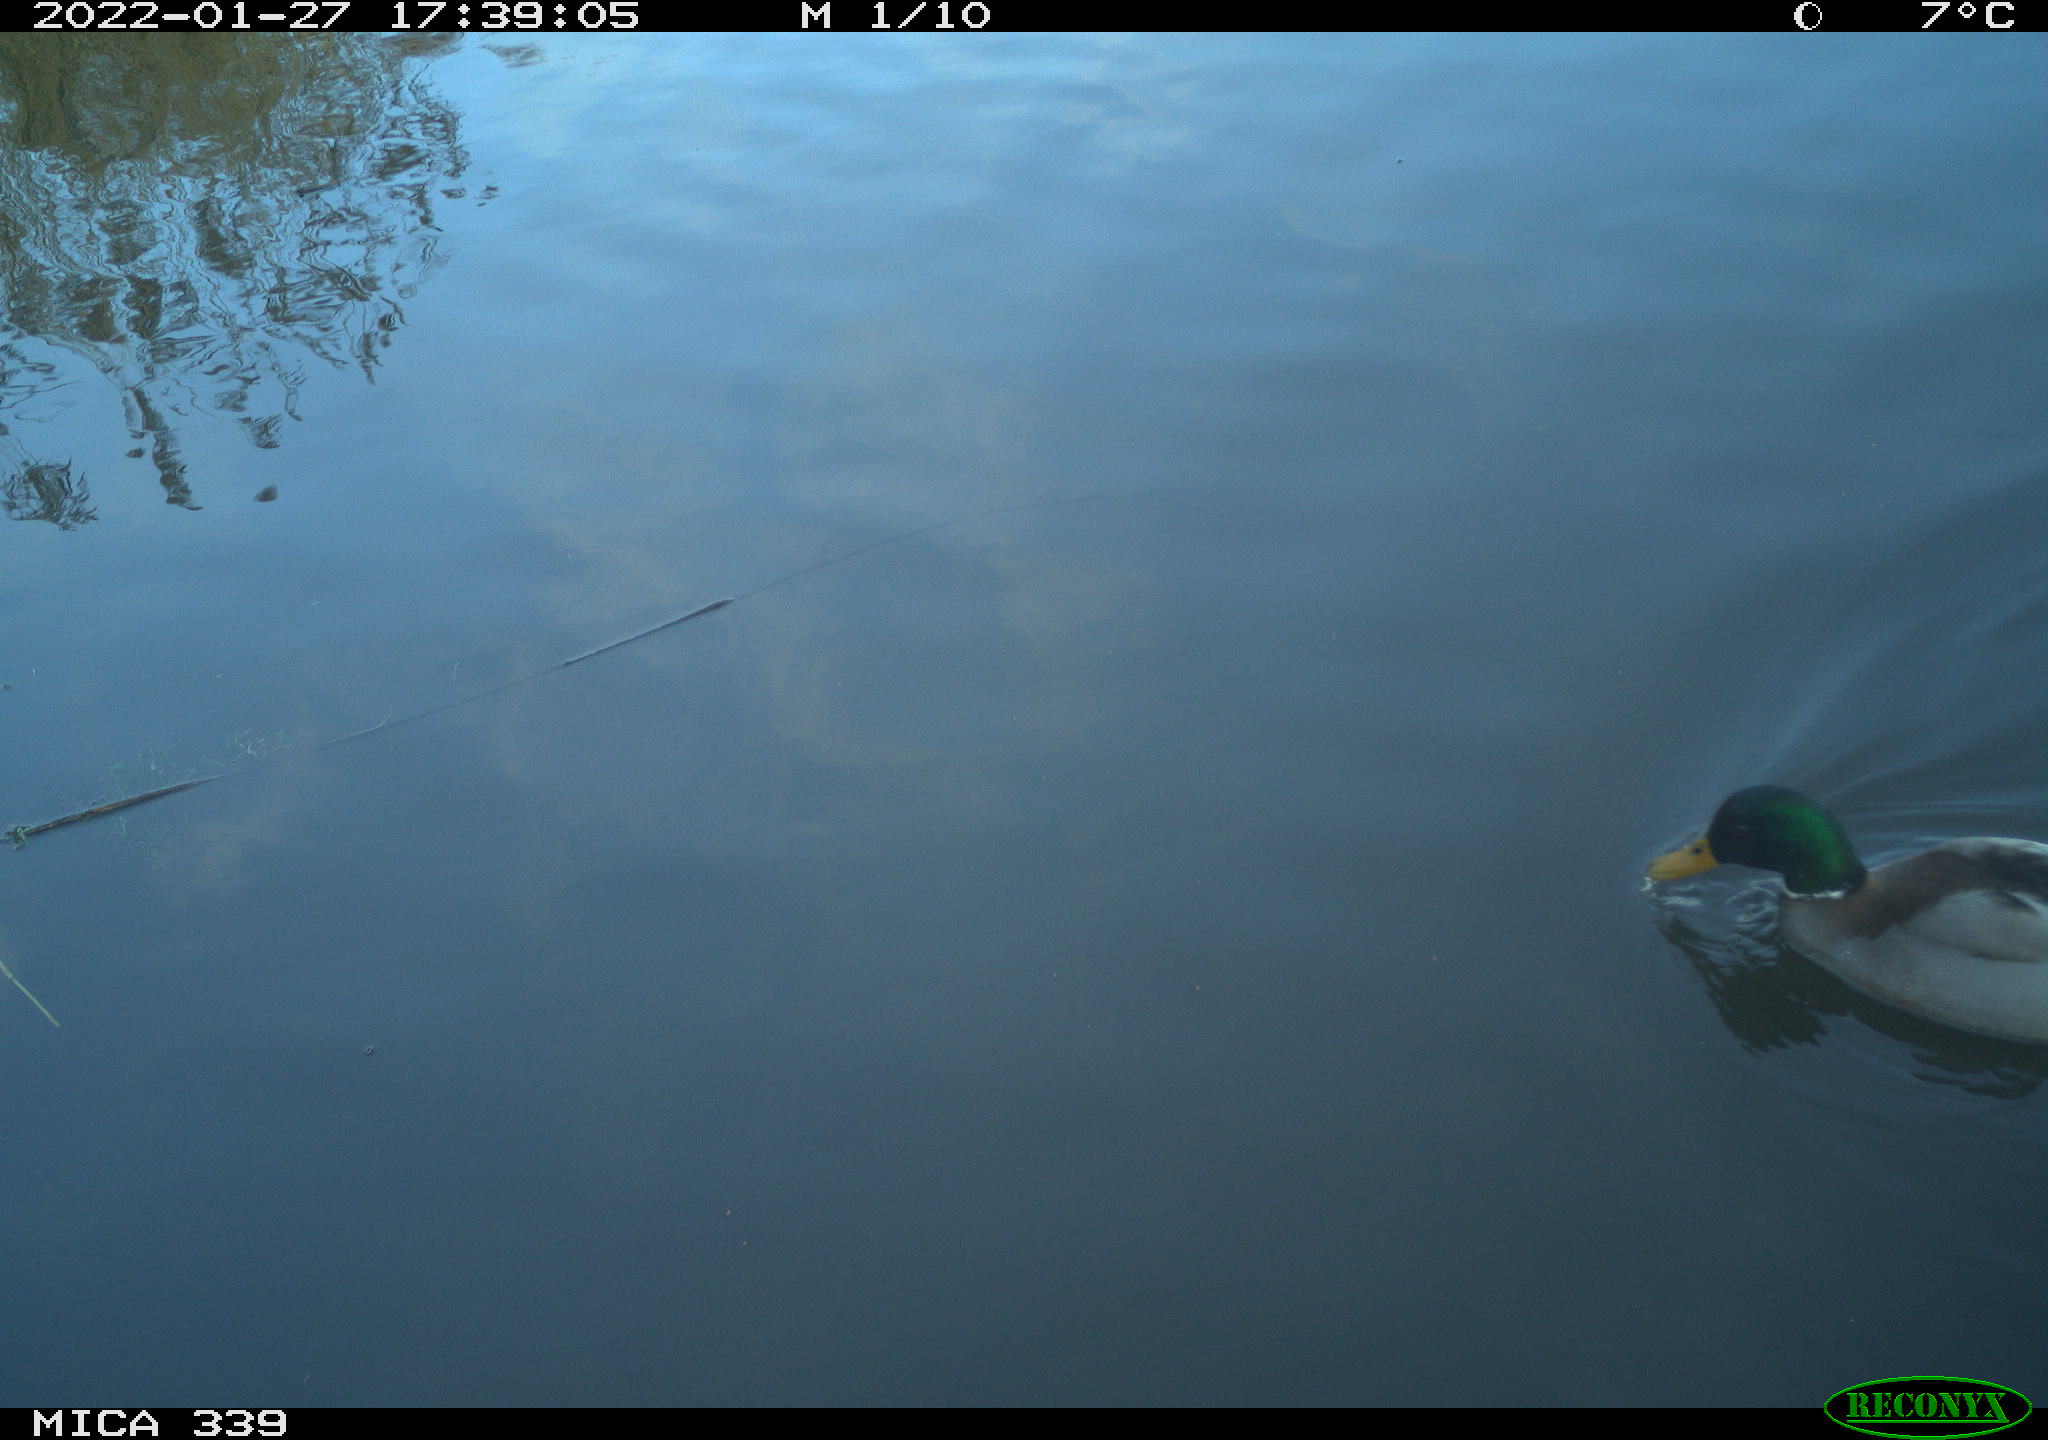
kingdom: Animalia
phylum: Chordata
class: Aves
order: Anseriformes
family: Anatidae
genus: Anas
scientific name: Anas platyrhynchos
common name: Mallard
